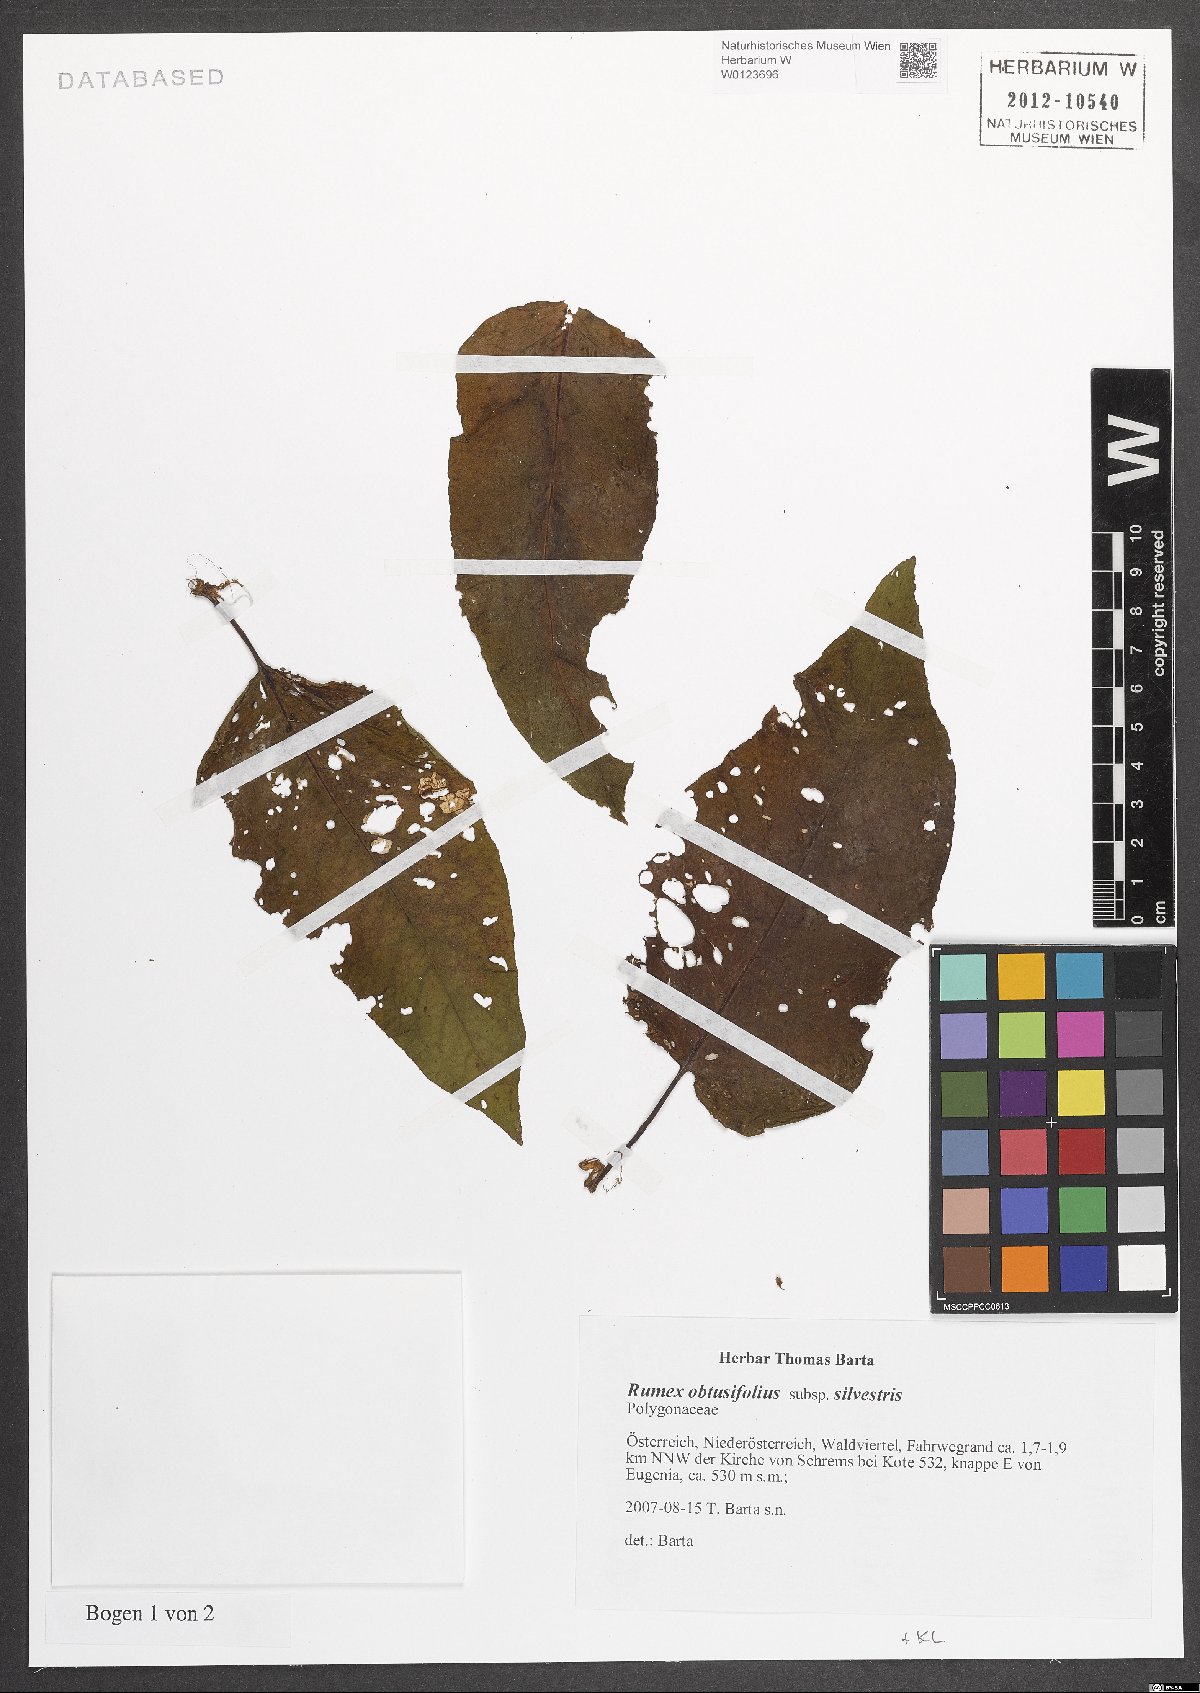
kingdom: Plantae
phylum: Tracheophyta
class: Magnoliopsida
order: Caryophyllales
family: Polygonaceae
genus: Rumex
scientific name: Rumex obtusifolius
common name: Bitter dock
